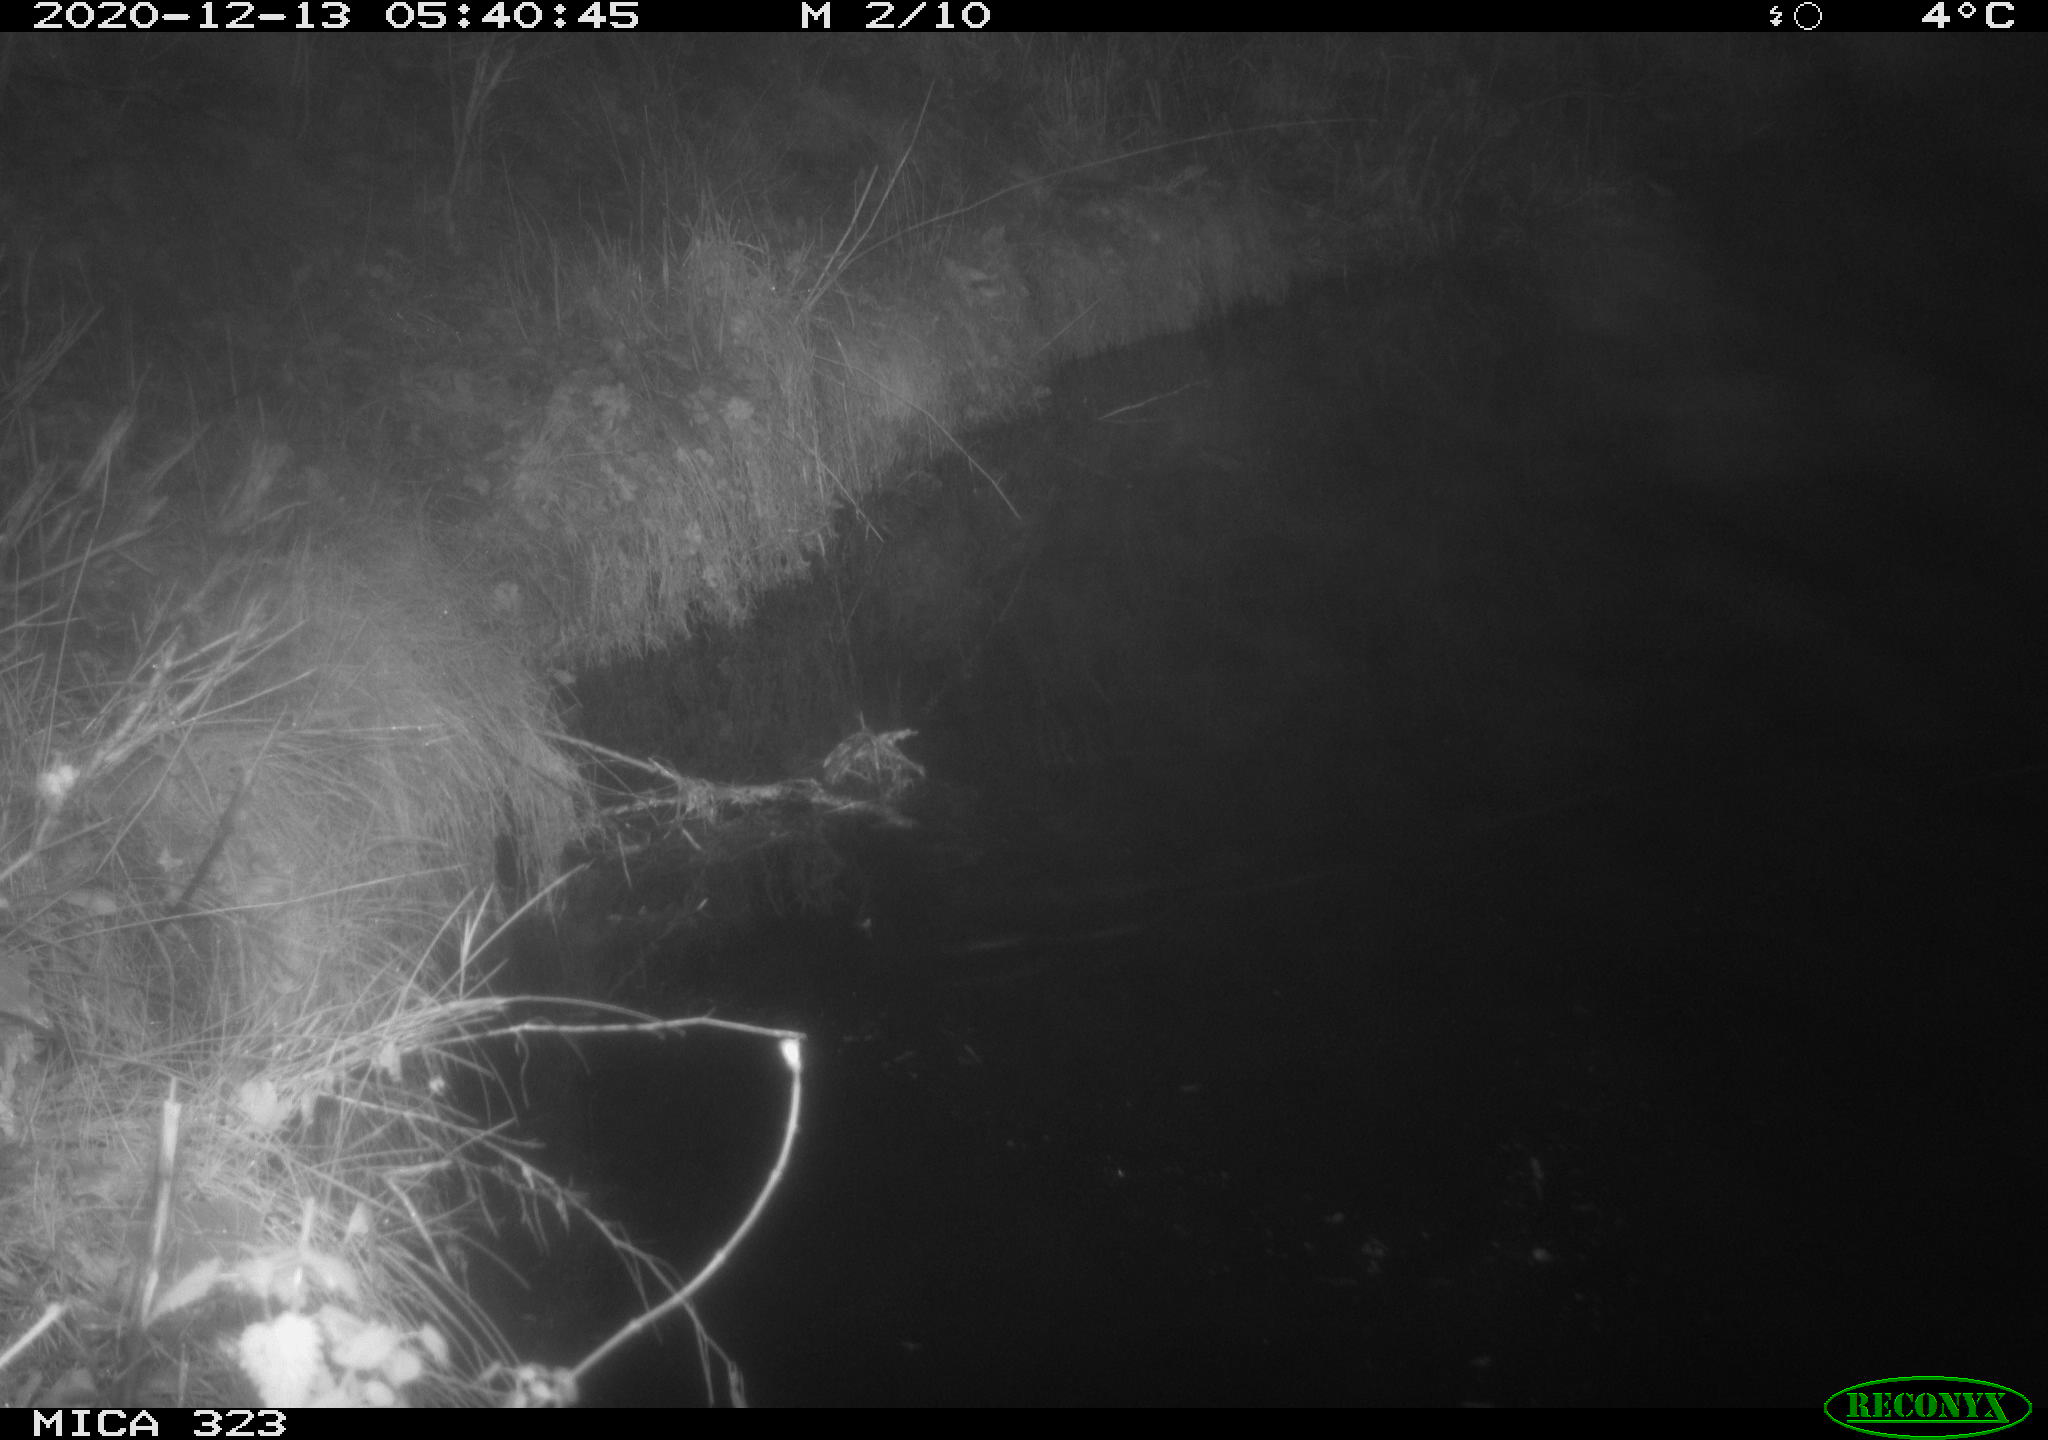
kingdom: Animalia
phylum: Chordata
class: Mammalia
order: Rodentia
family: Myocastoridae
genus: Myocastor
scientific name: Myocastor coypus
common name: Coypu
